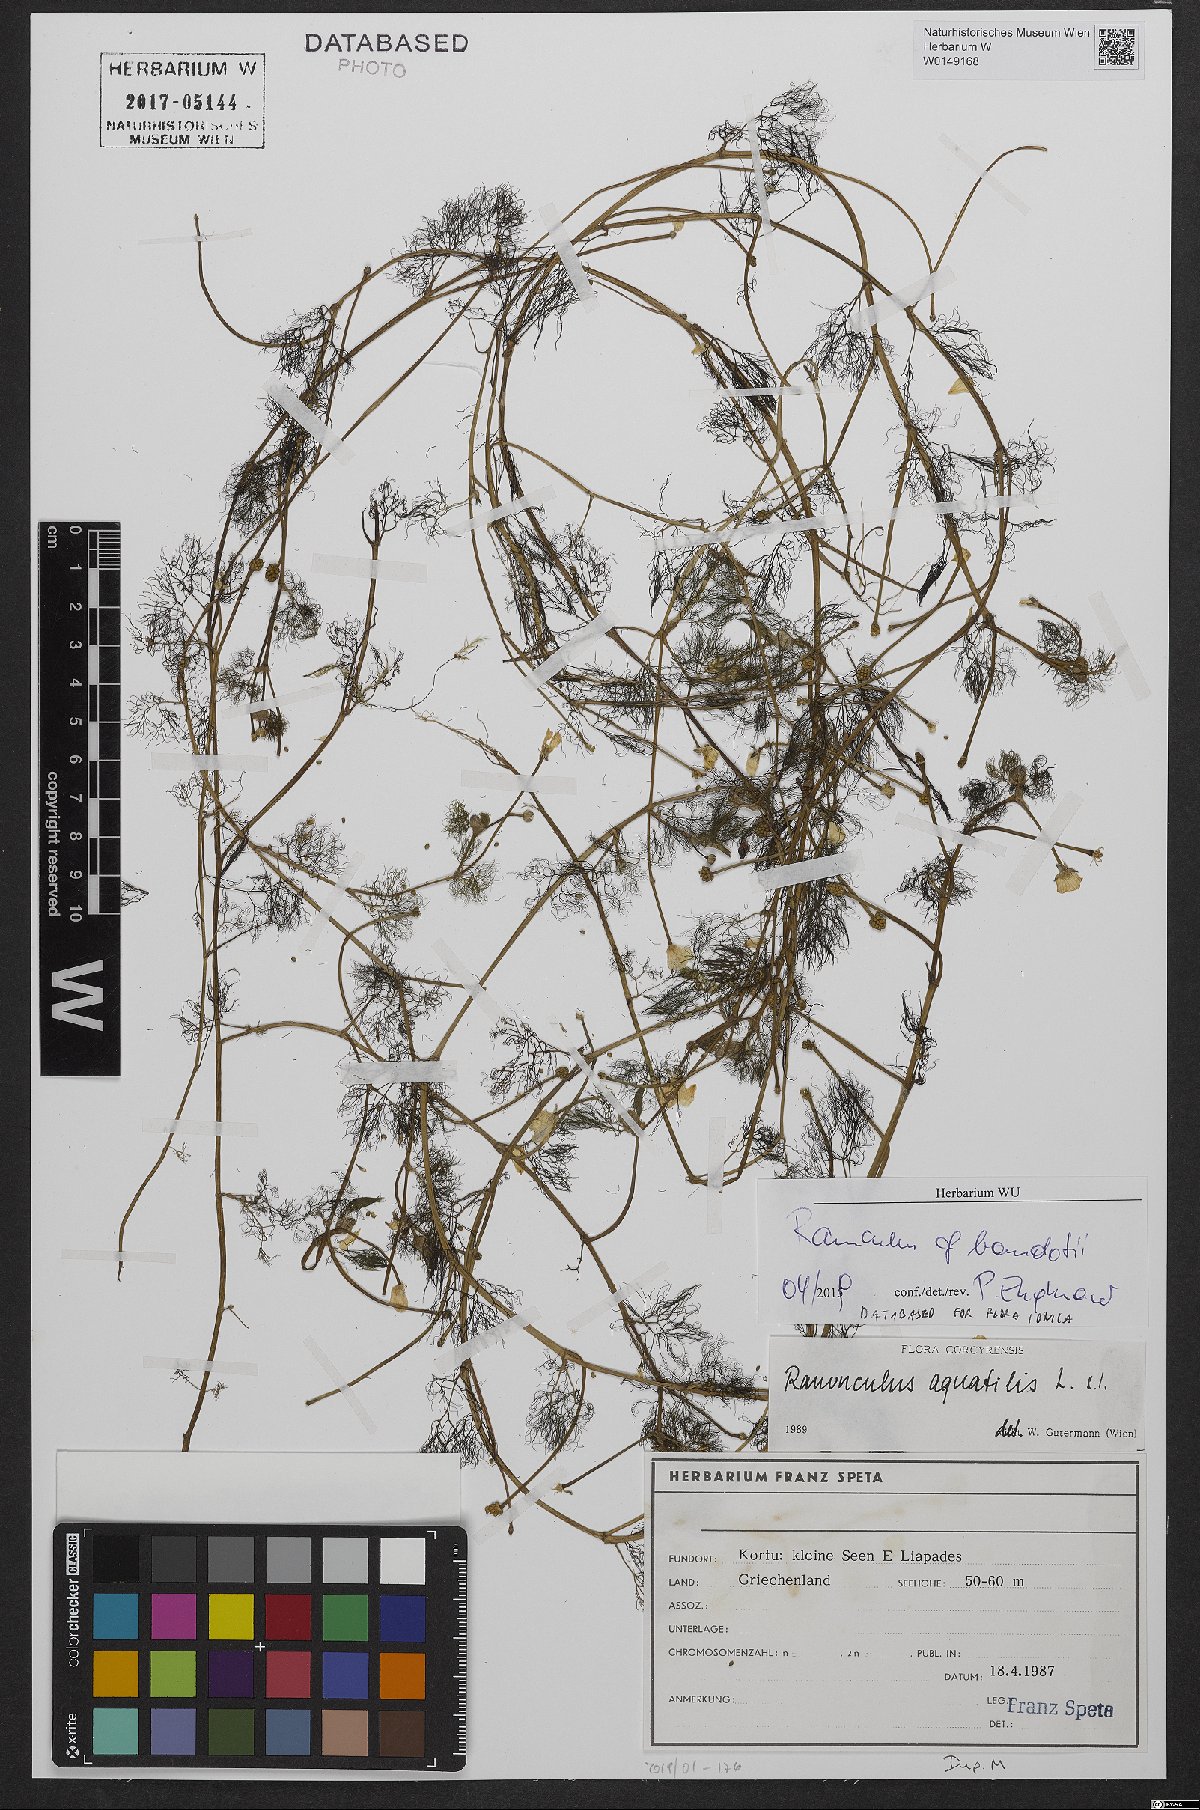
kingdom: Plantae
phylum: Tracheophyta
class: Magnoliopsida
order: Ranunculales
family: Ranunculaceae
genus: Ranunculus
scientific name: Ranunculus peltatus
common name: Pond water-crowfoot
